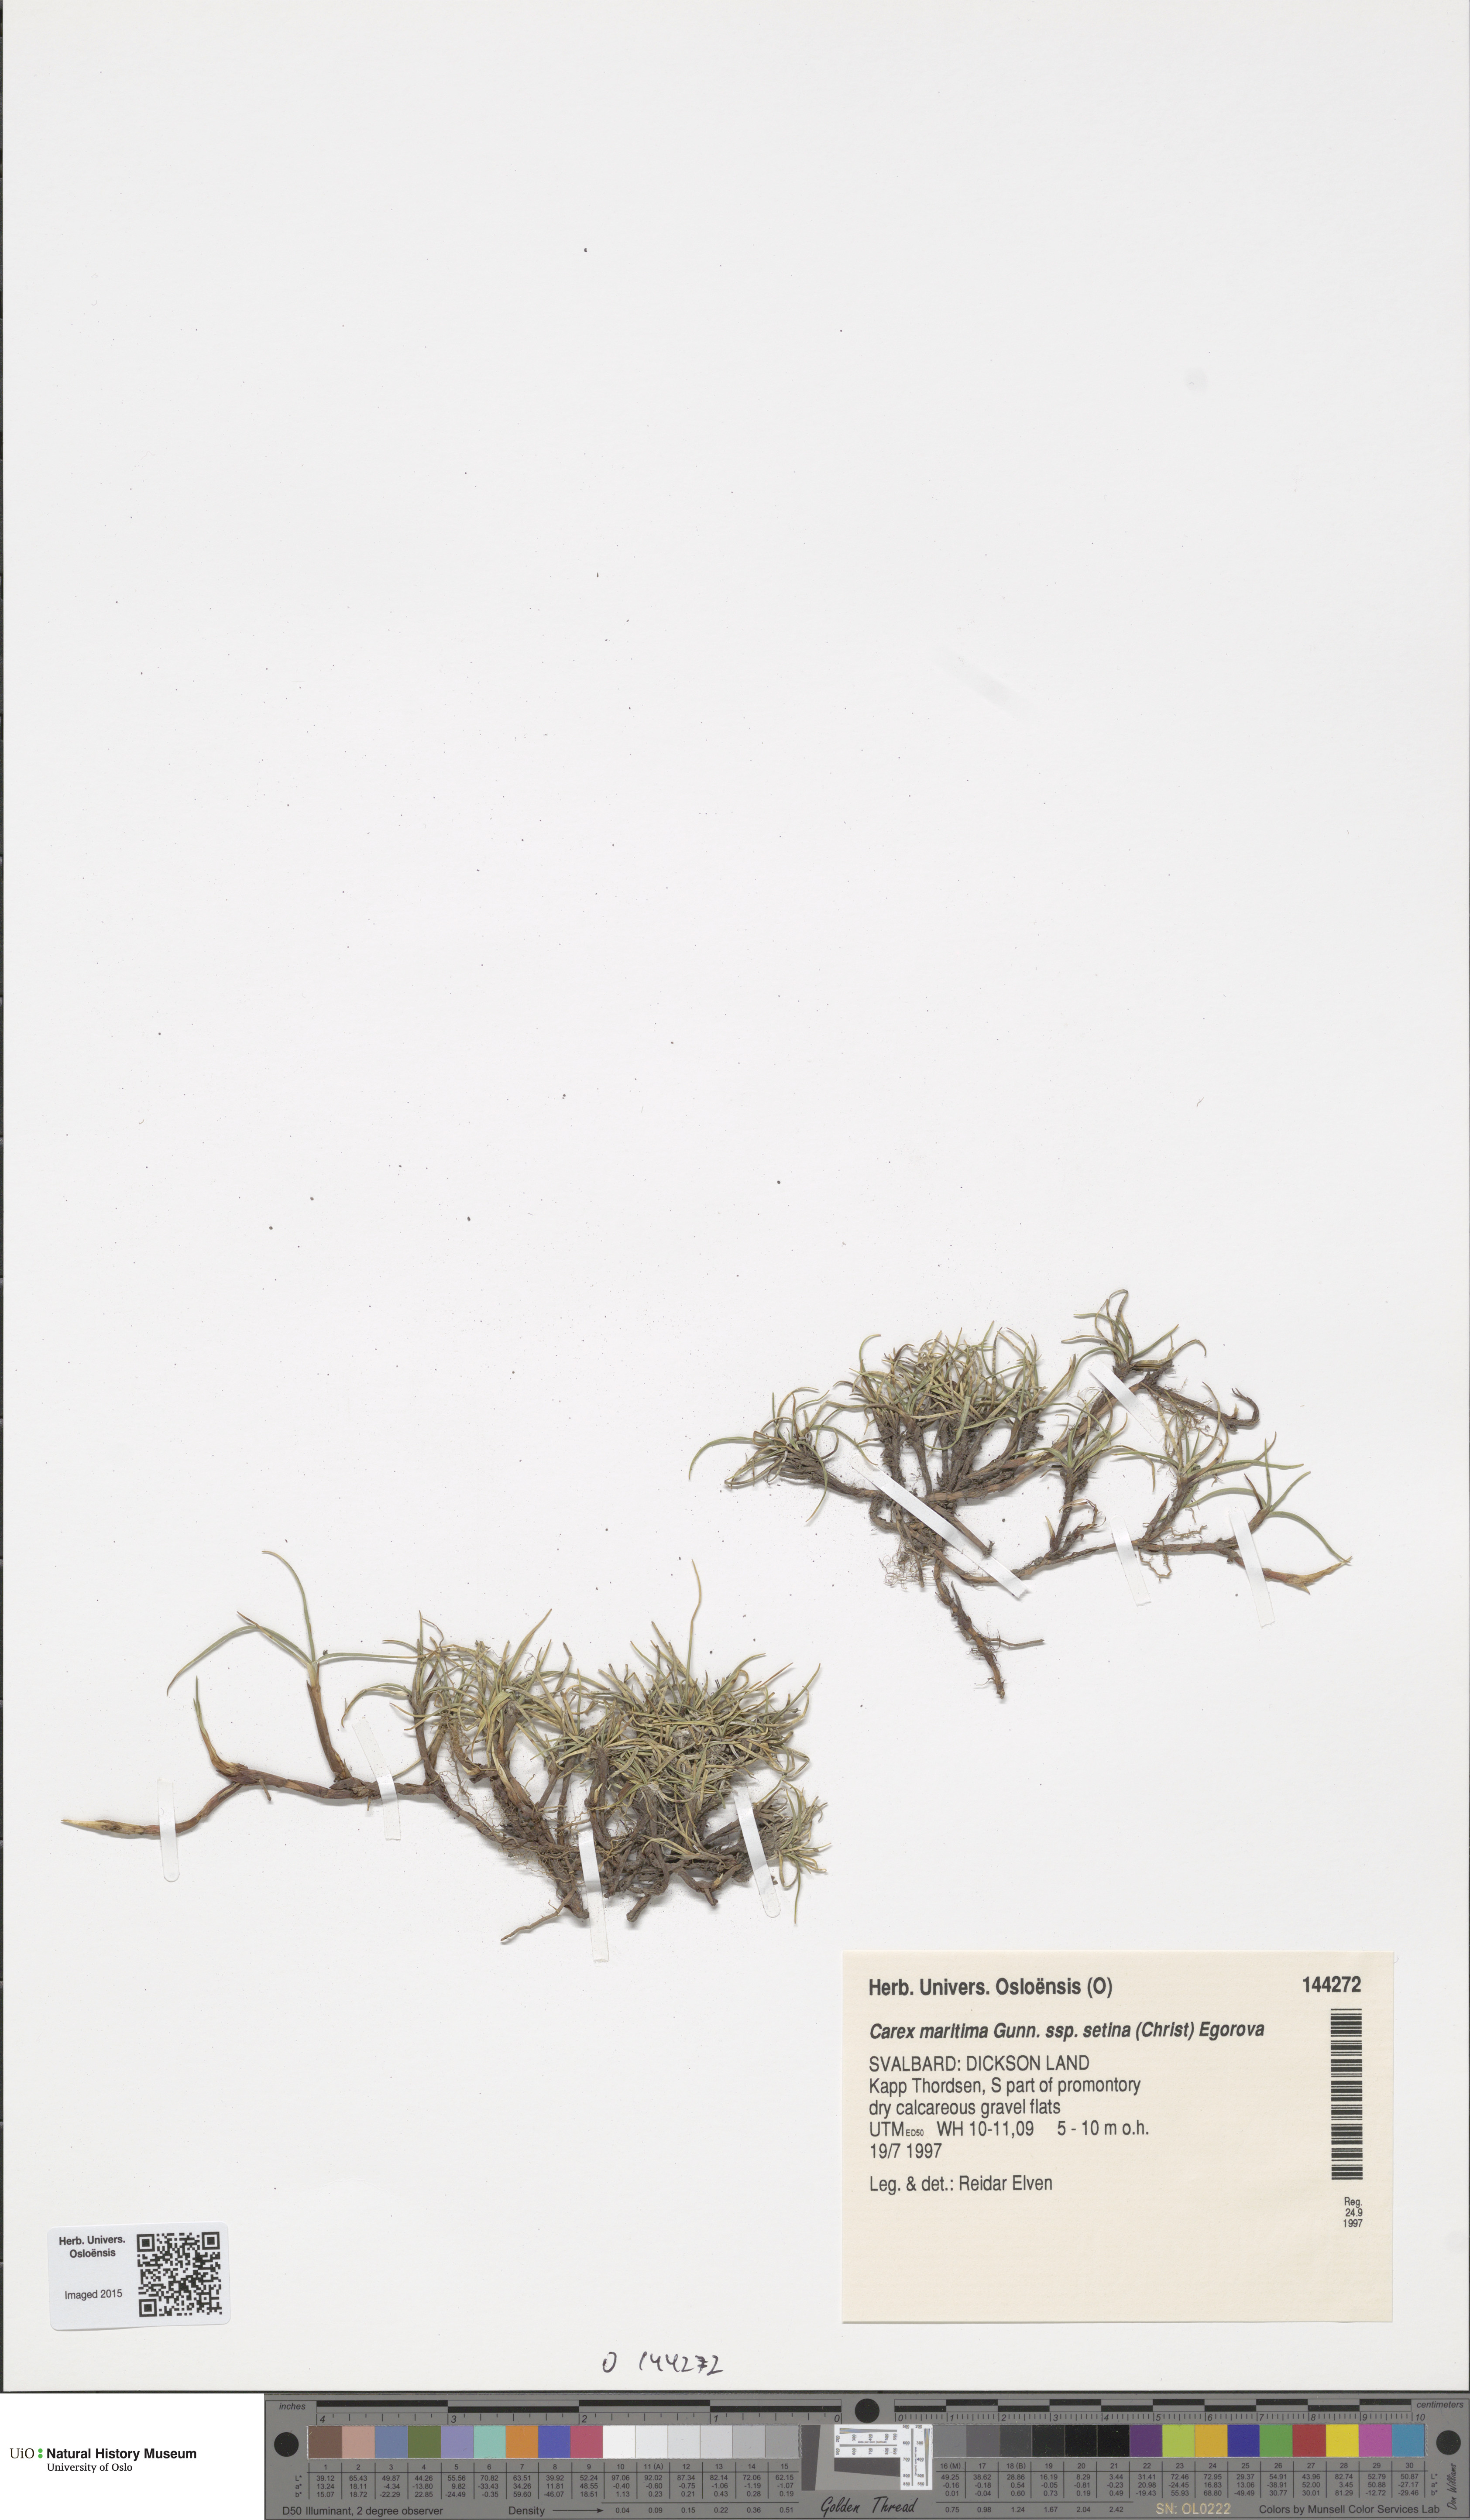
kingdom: Plantae
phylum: Tracheophyta
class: Liliopsida
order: Poales
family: Cyperaceae
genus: Carex
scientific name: Carex maritima
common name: Curved sedge
